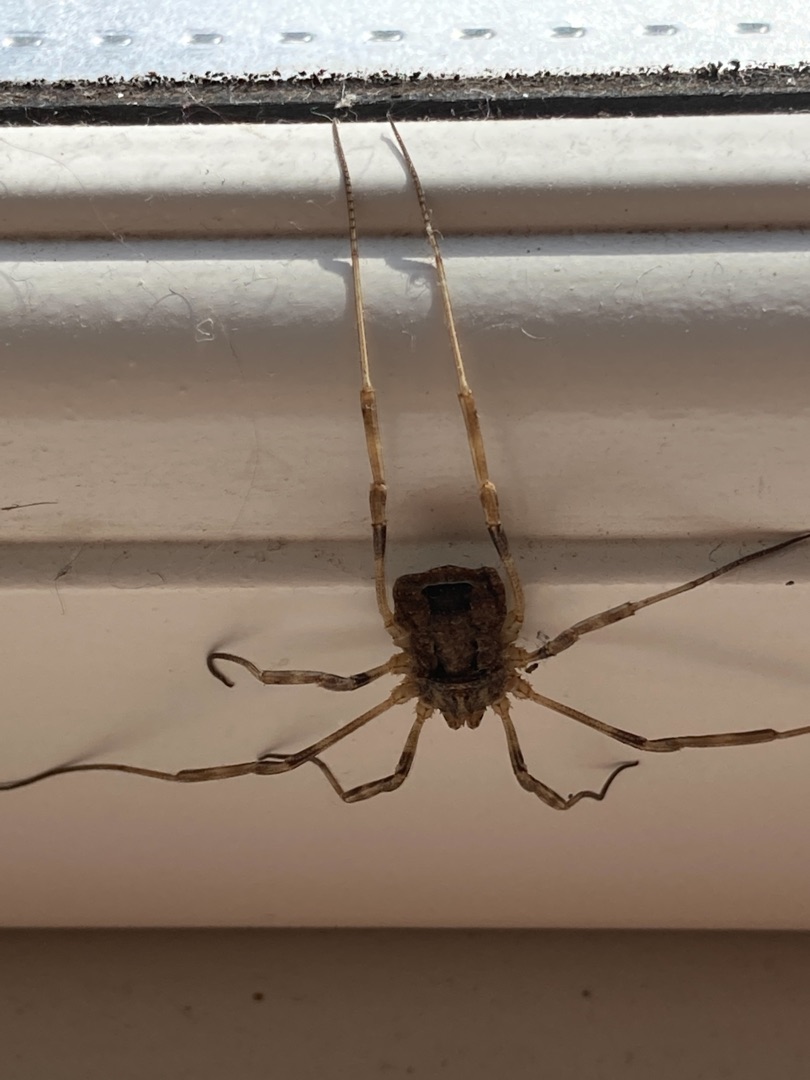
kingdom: Animalia
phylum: Arthropoda
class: Arachnida
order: Opiliones
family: Phalangiidae
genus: Odiellus
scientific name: Odiellus spinosus
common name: Kæmpemejer
